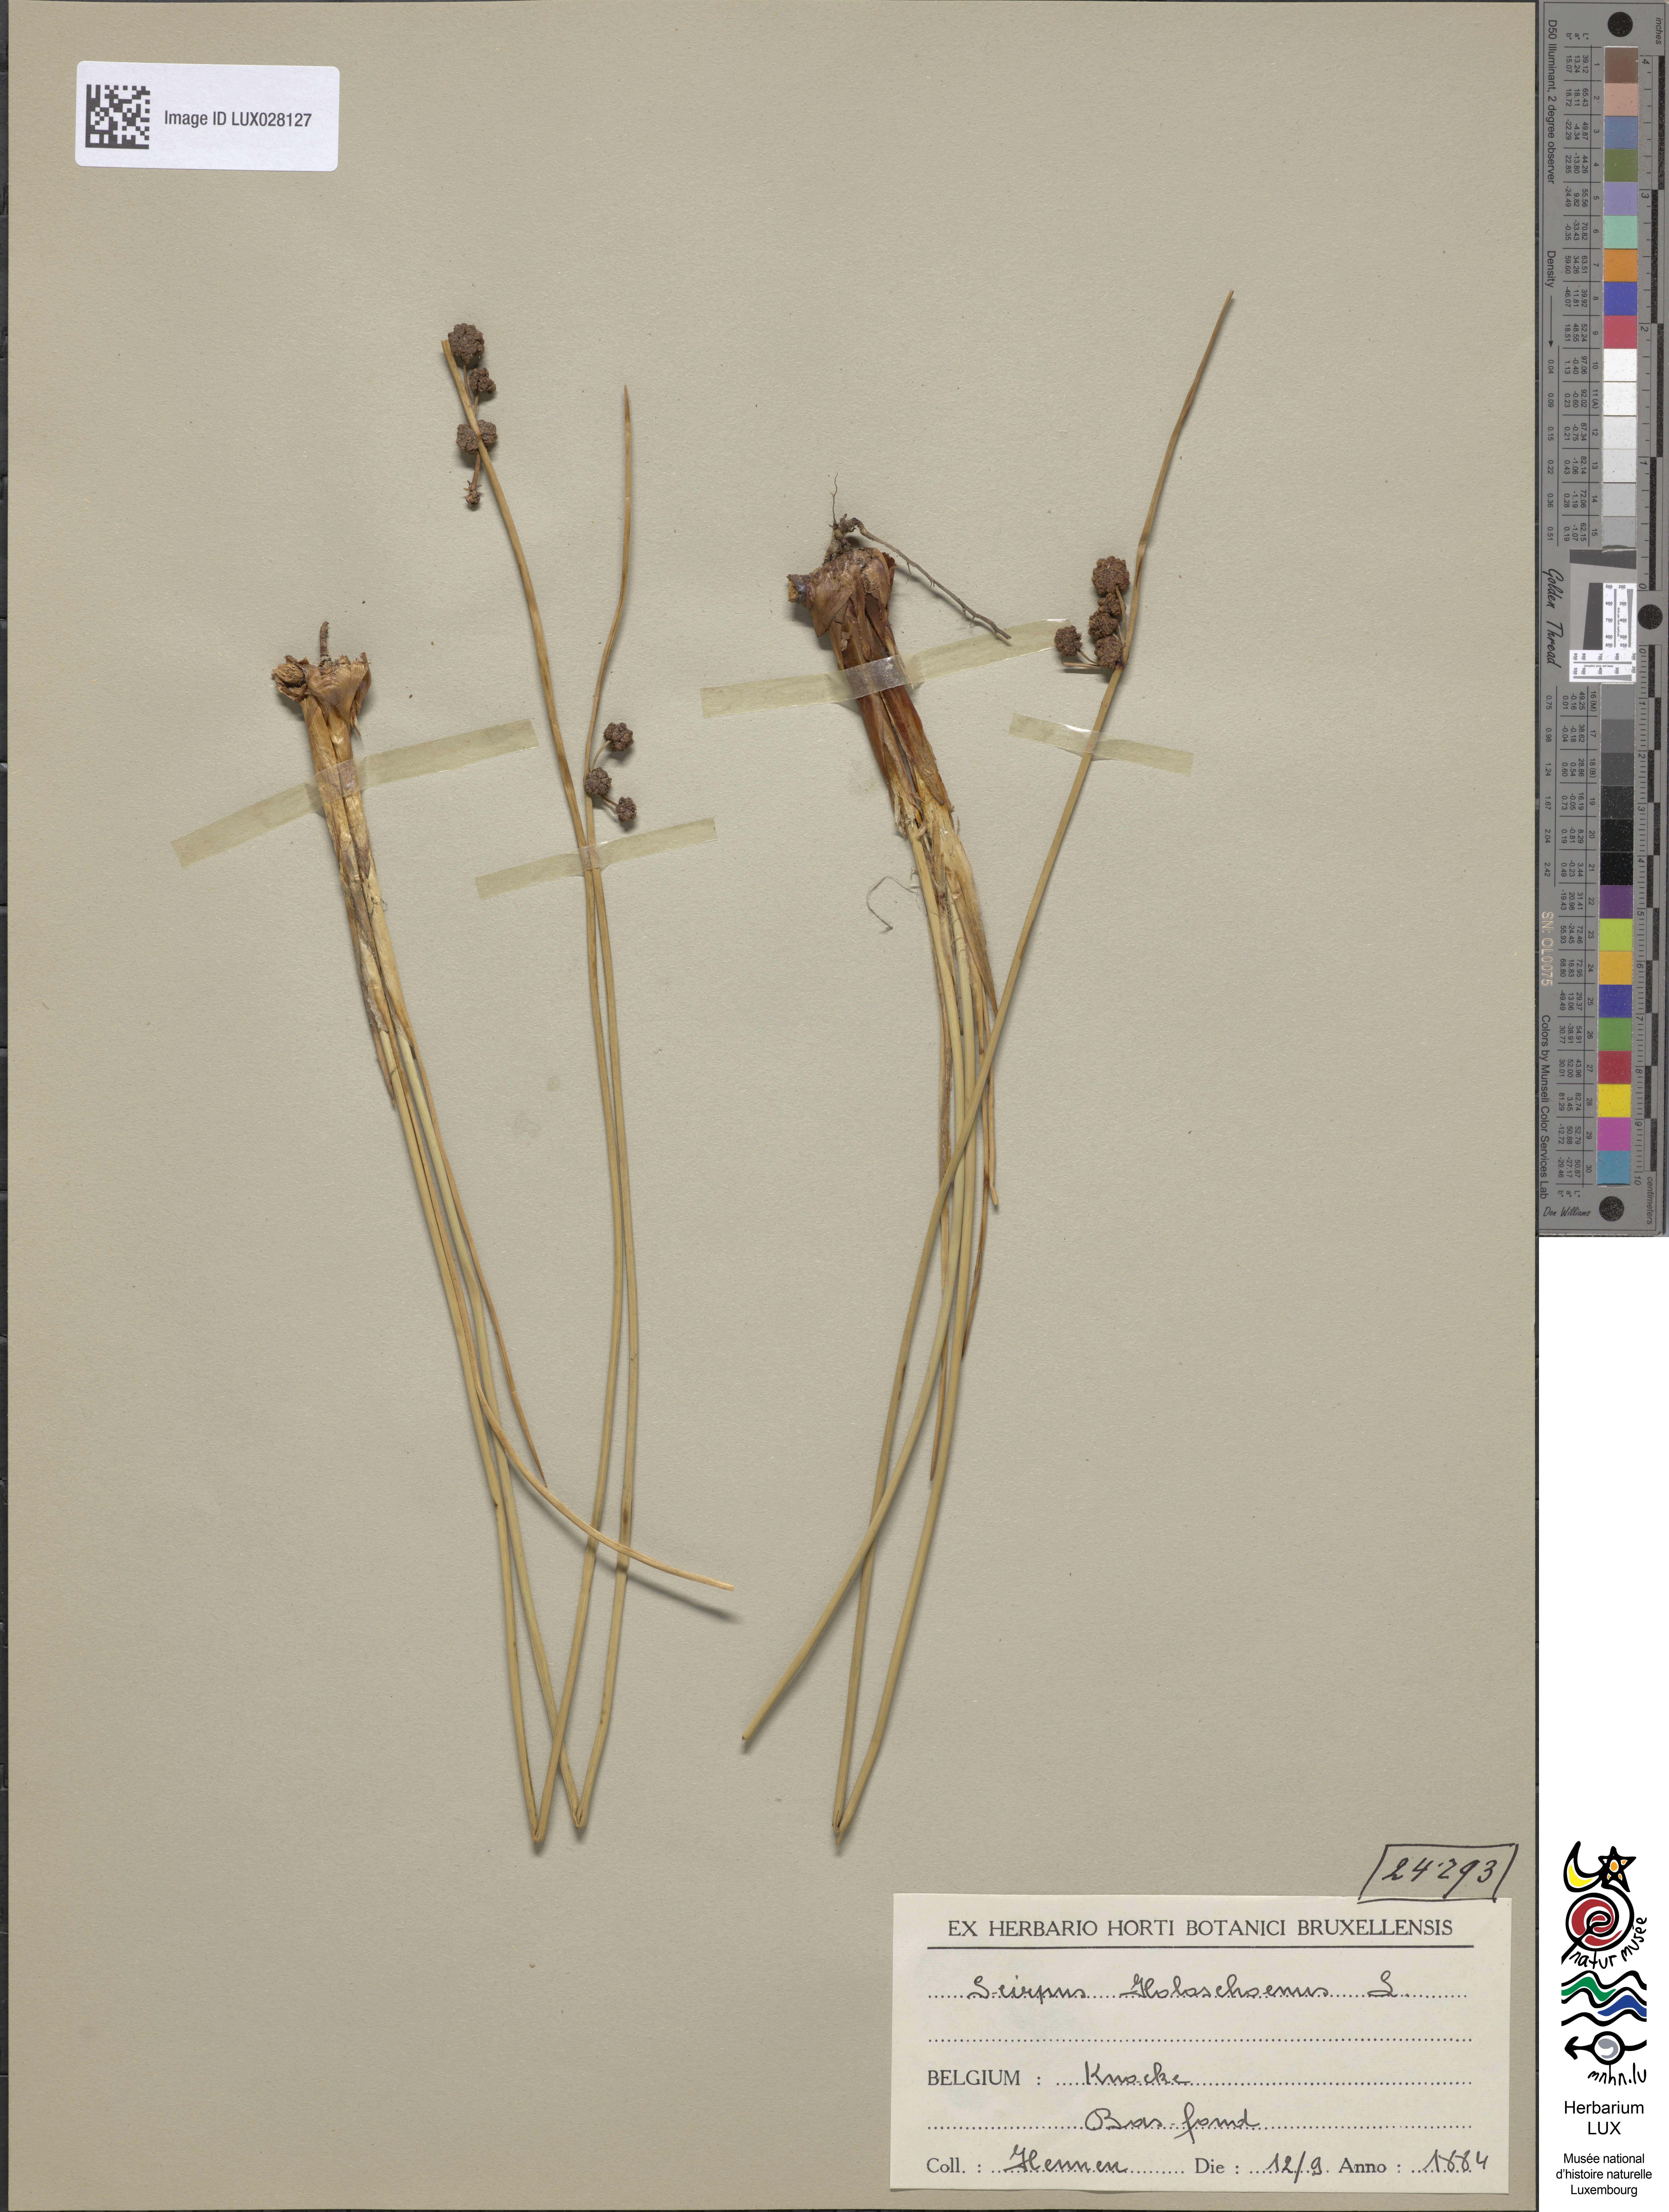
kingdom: Plantae
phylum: Tracheophyta
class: Liliopsida
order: Poales
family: Cyperaceae
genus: Scirpoides
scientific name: Scirpoides holoschoenus
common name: Round-headed club-rush
